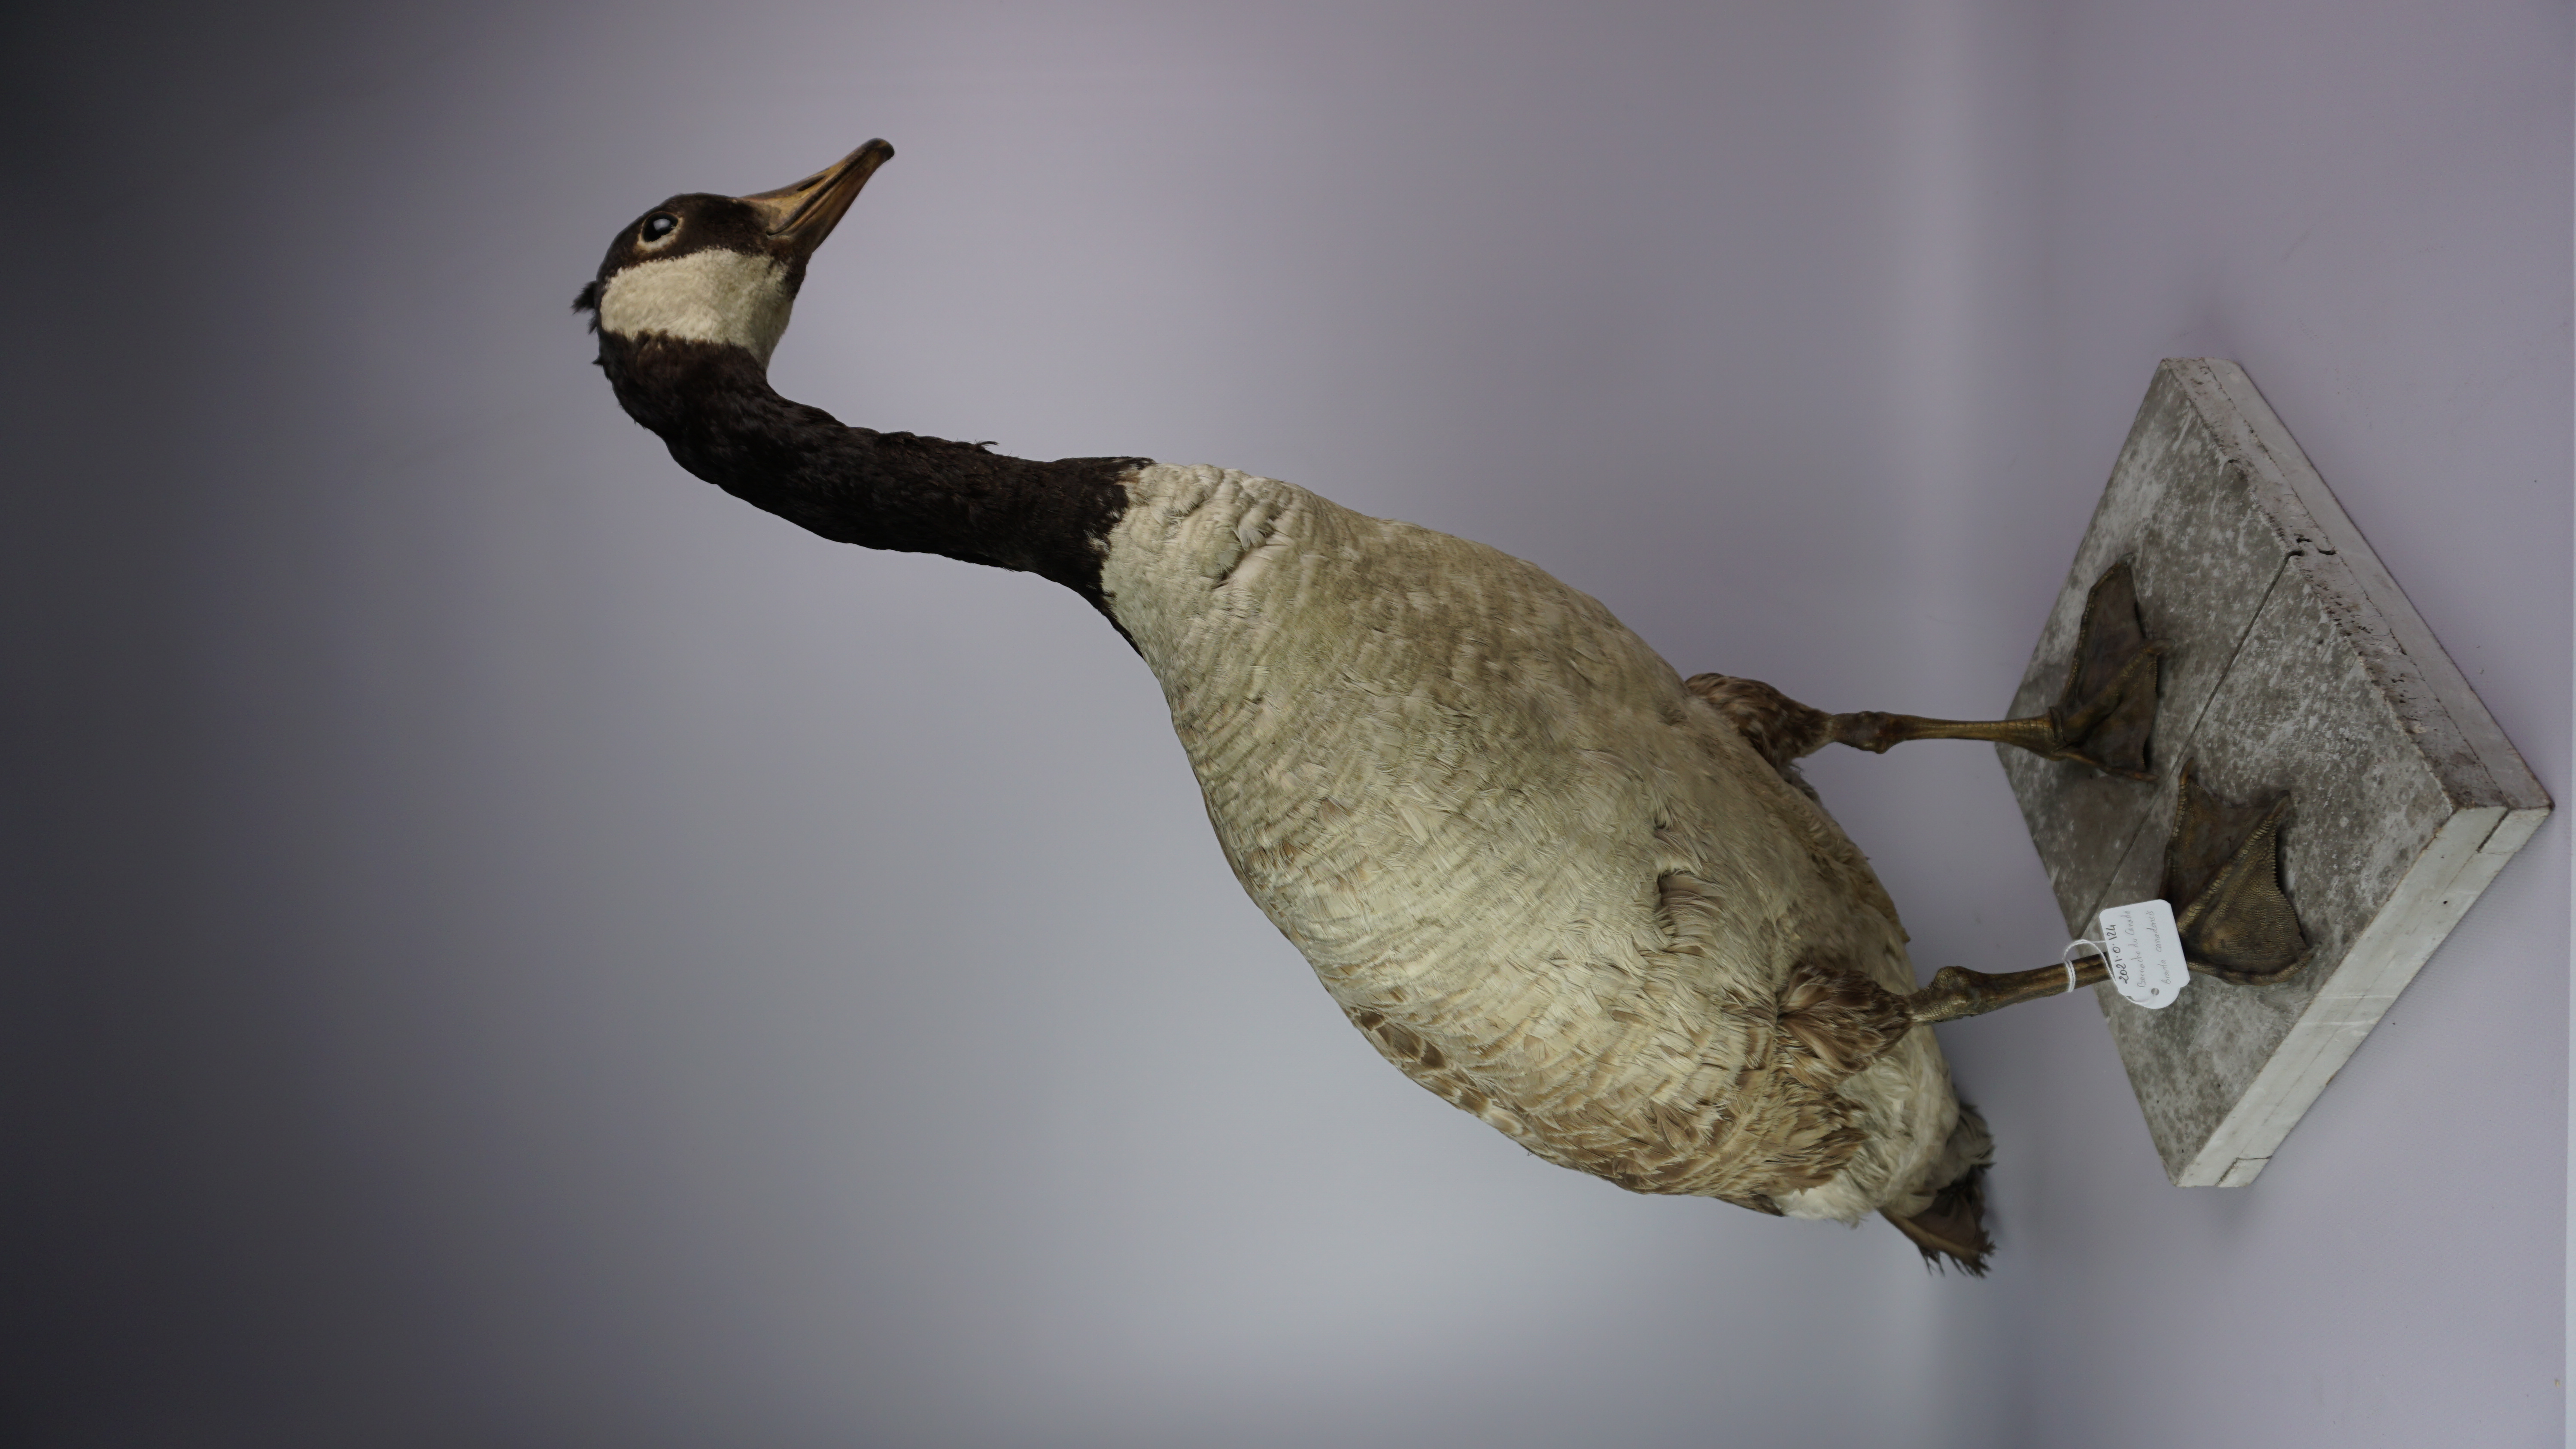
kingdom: Animalia
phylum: Chordata
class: Aves
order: Anseriformes
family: Anatidae
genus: Branta
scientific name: Branta canadensis
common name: Canada goose
